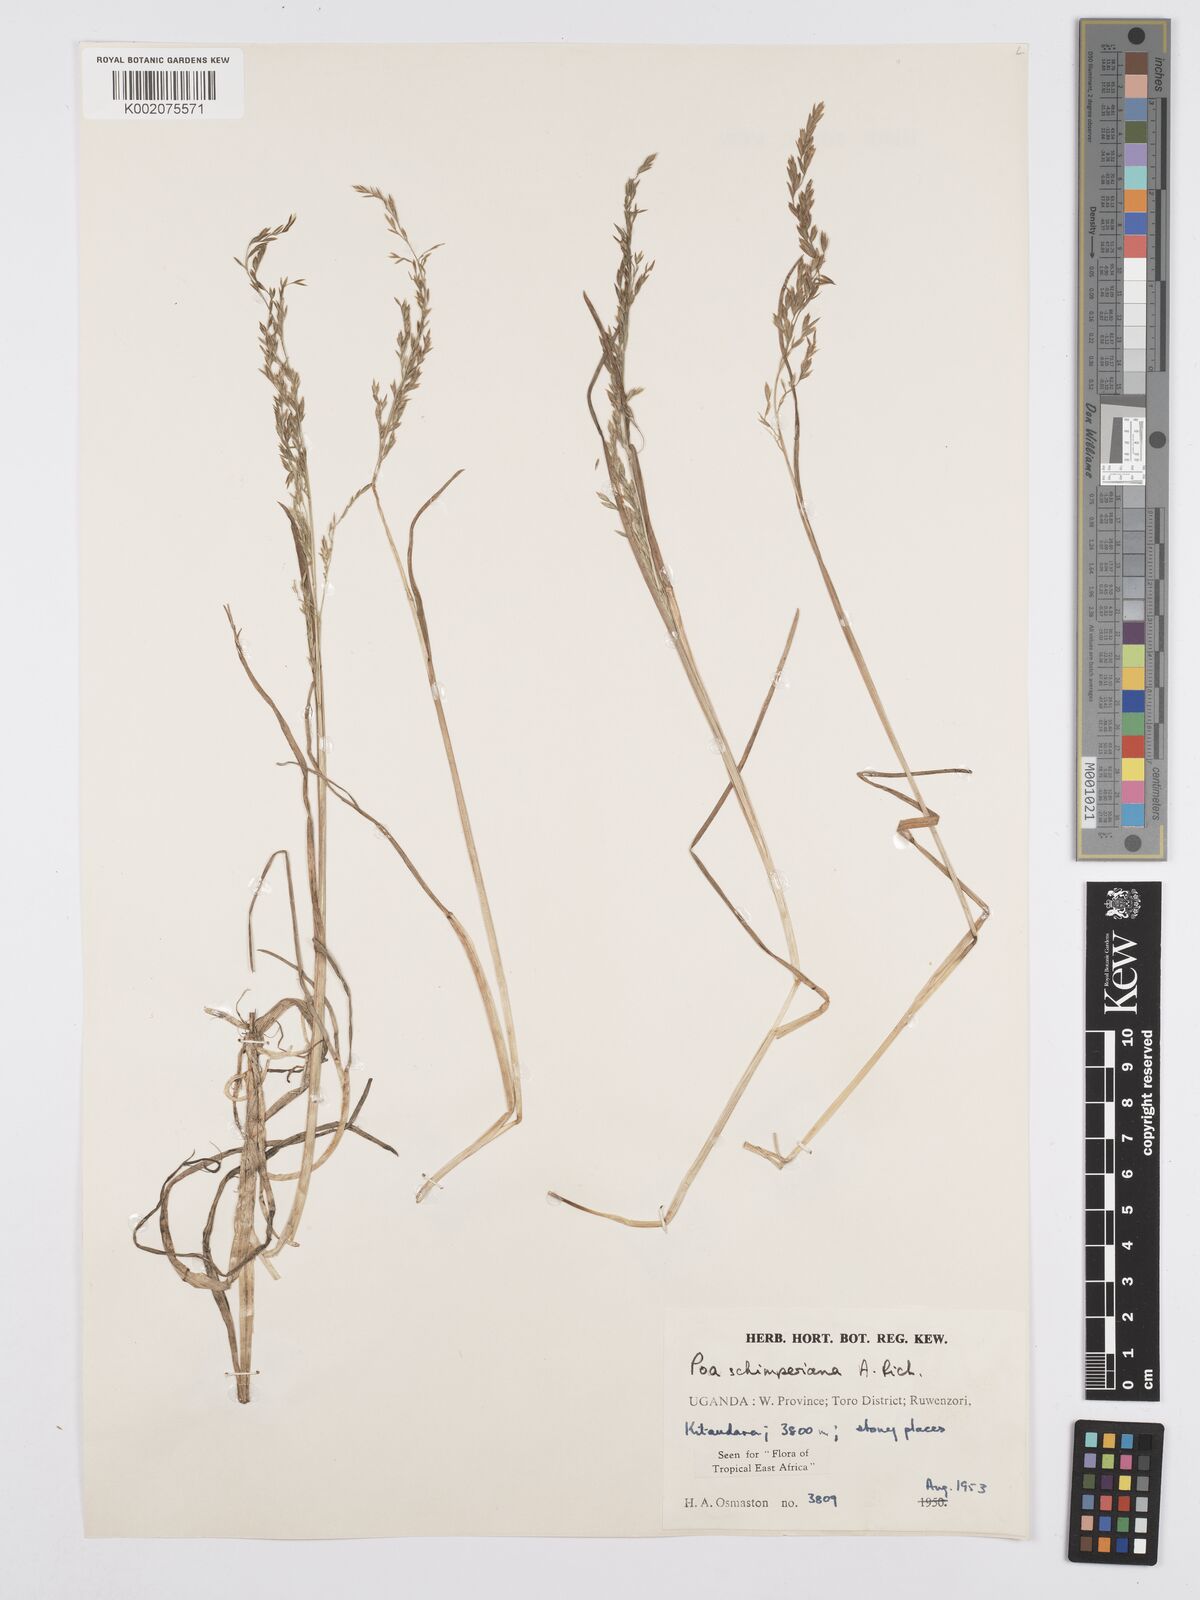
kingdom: Plantae
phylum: Tracheophyta
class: Liliopsida
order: Poales
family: Poaceae
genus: Poa
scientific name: Poa schimperiana
